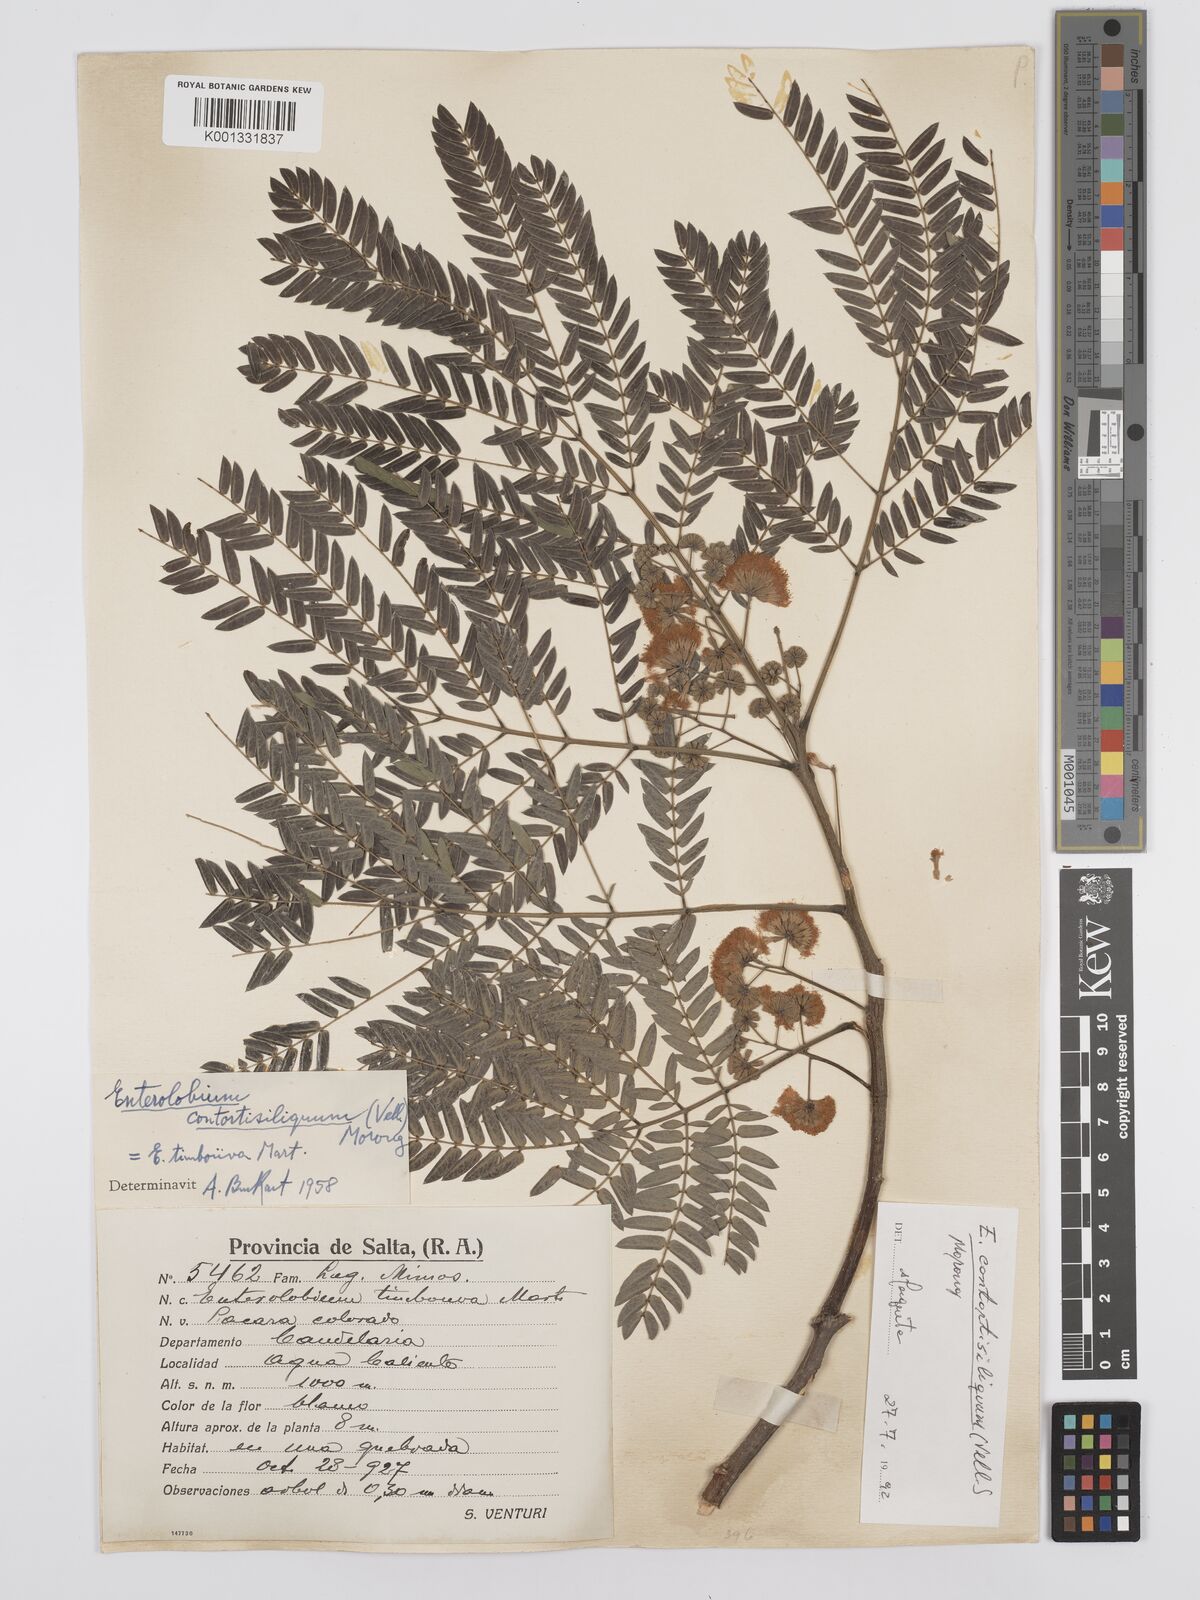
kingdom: Plantae
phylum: Tracheophyta
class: Magnoliopsida
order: Fabales
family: Fabaceae
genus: Enterolobium
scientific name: Enterolobium contortisiliquum
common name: Pacara earpod tree
